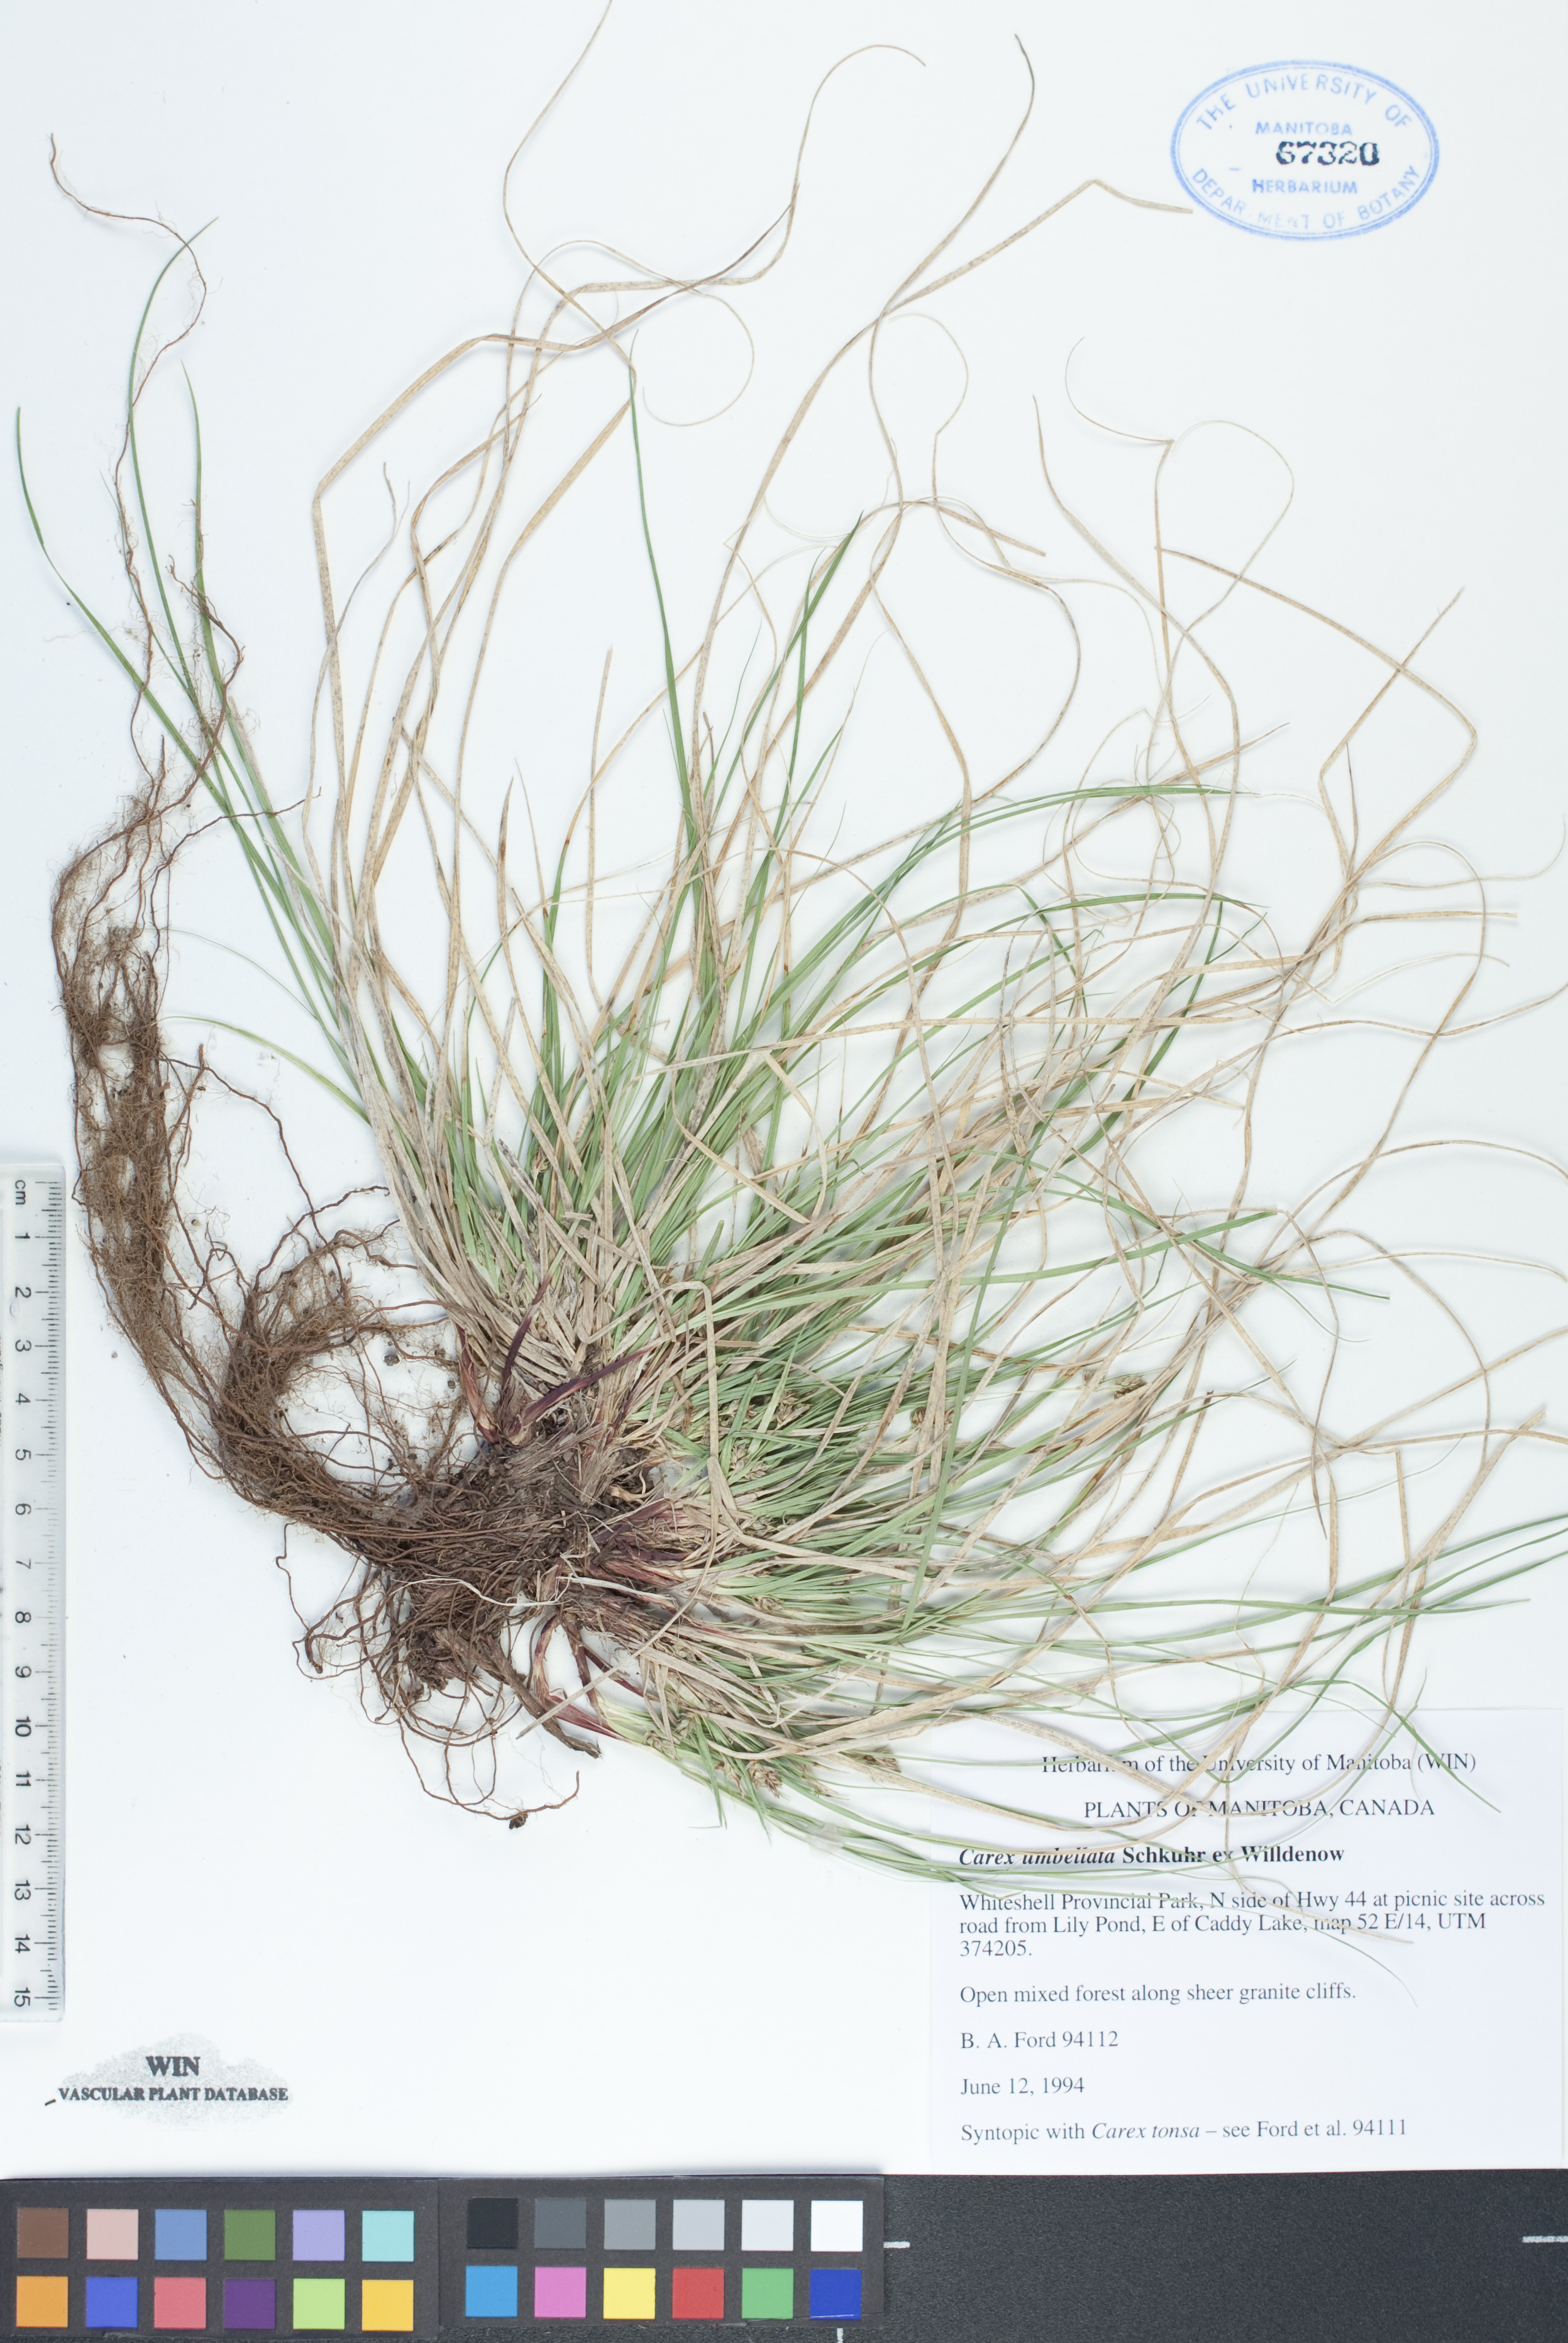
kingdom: Plantae
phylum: Tracheophyta
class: Liliopsida
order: Poales
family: Cyperaceae
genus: Carex
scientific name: Carex umbellata
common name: Early oak sedge
